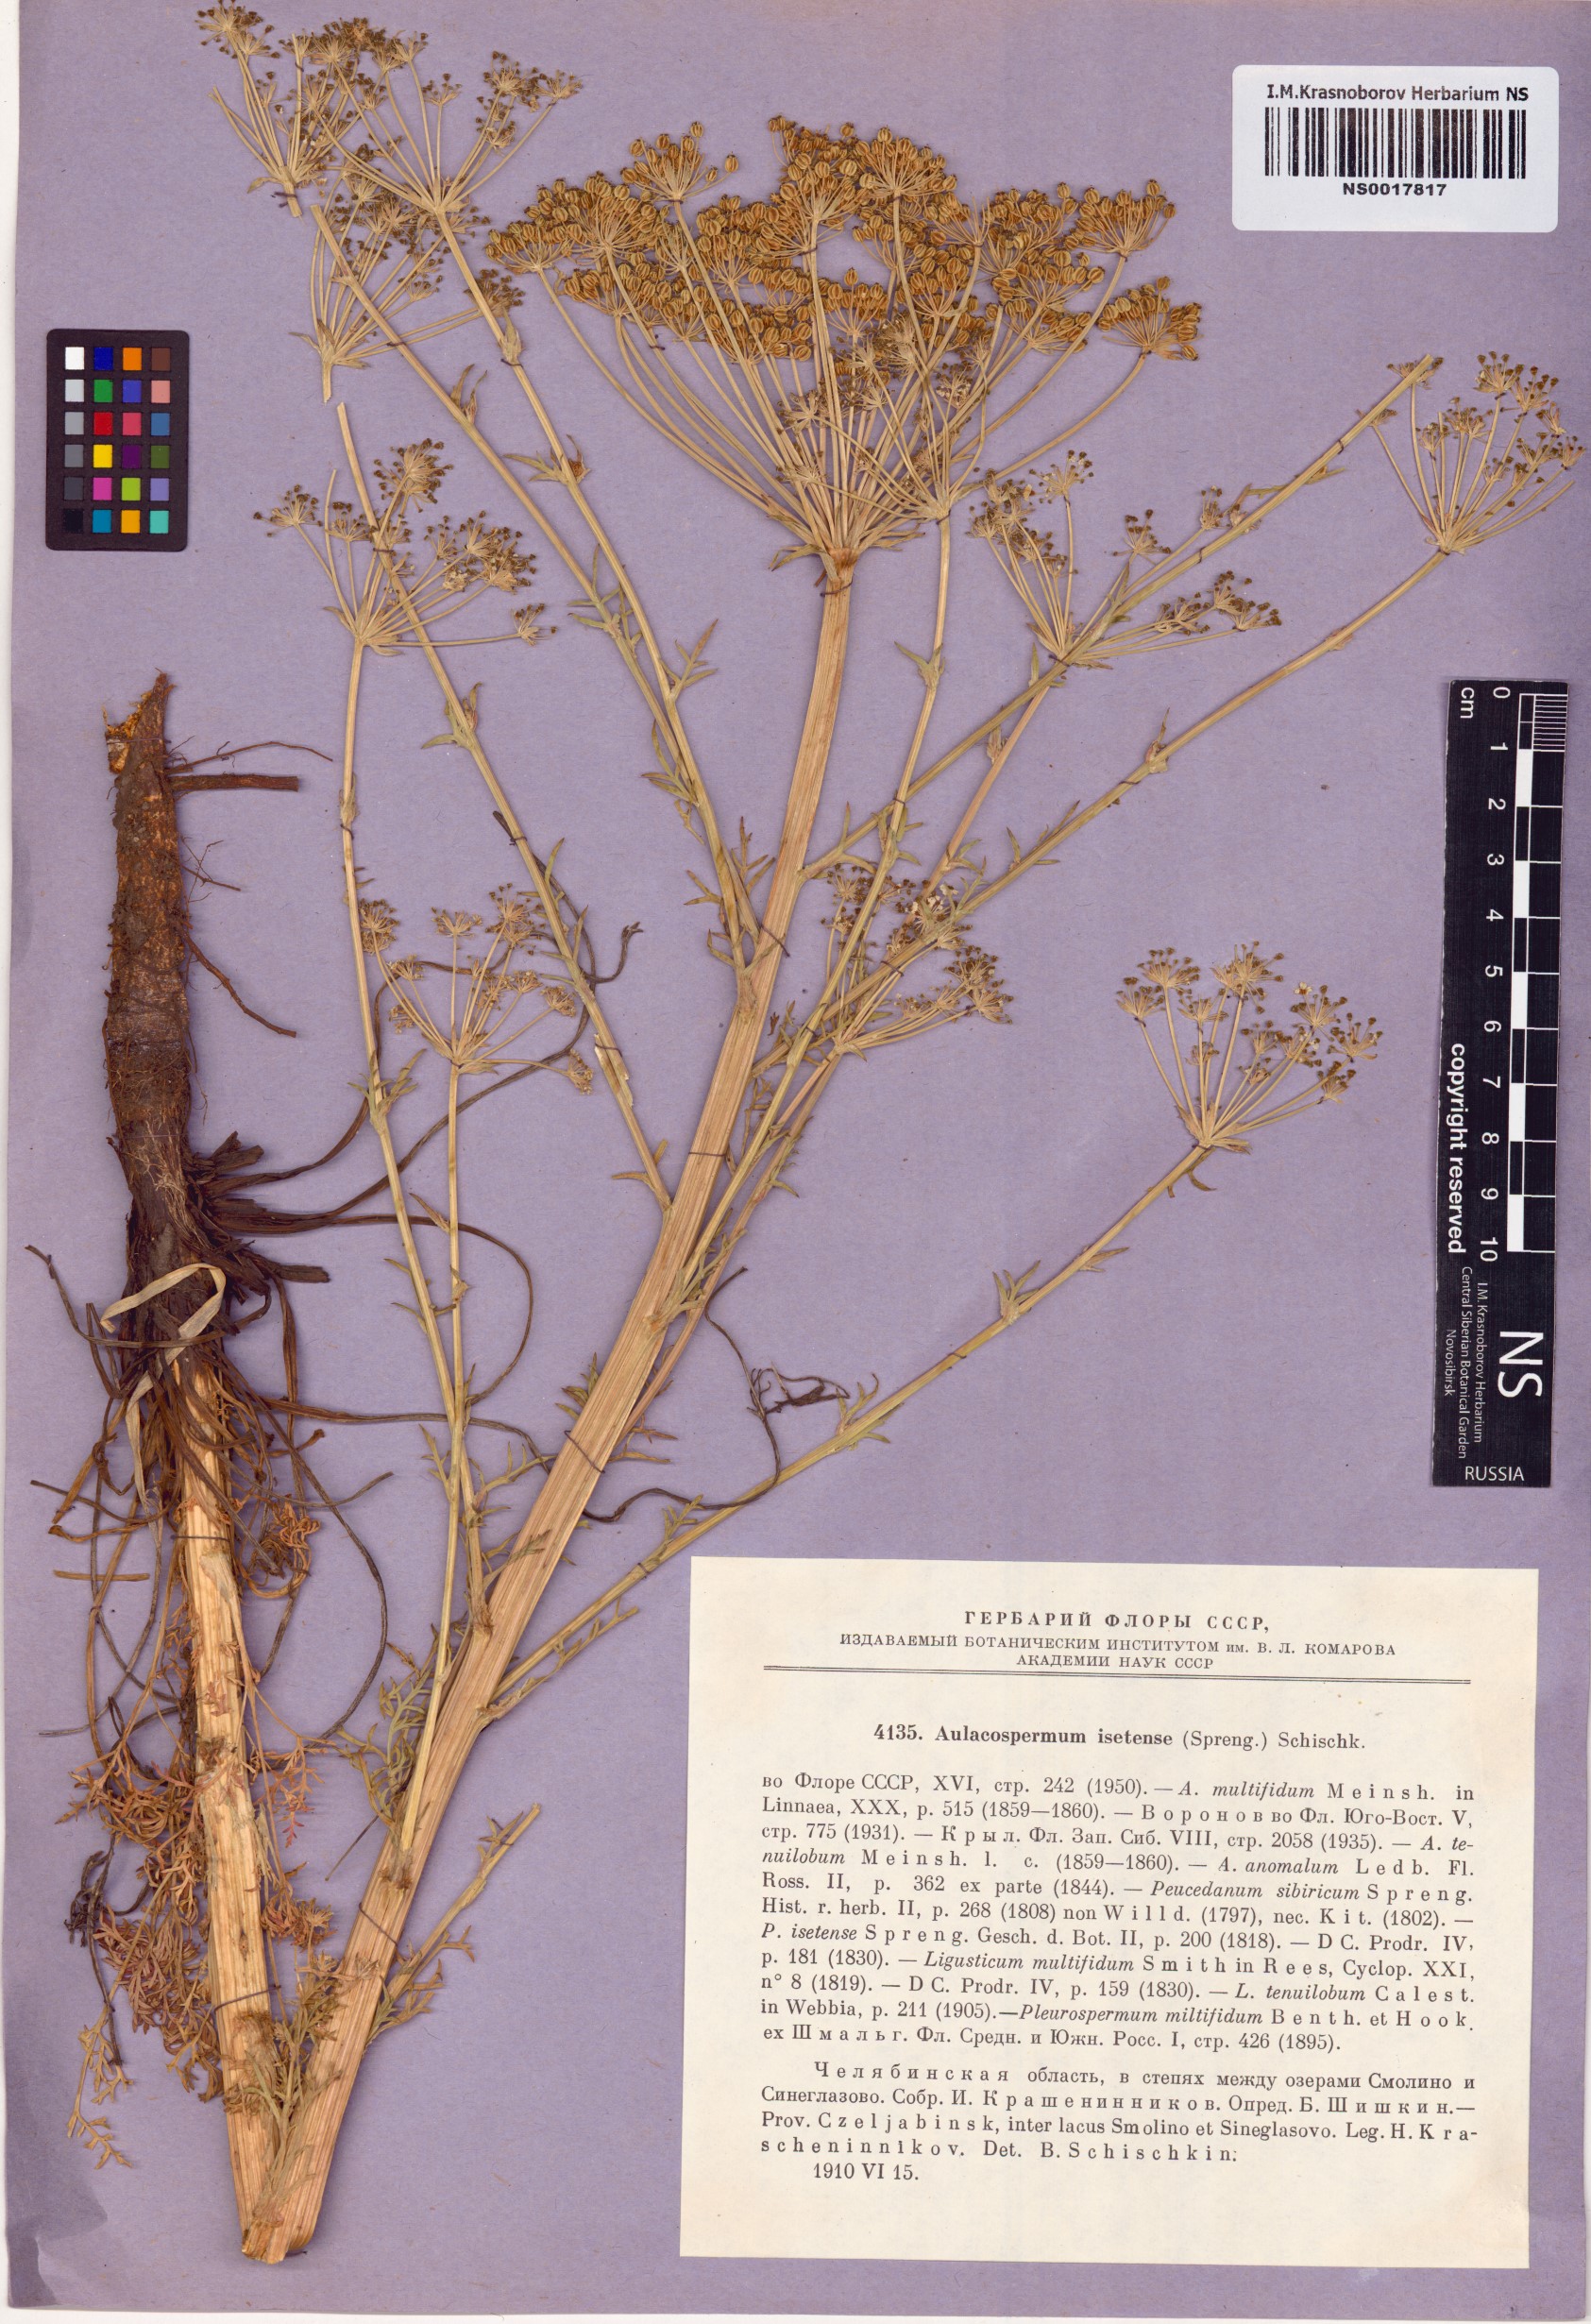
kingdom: Plantae
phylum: Tracheophyta
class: Magnoliopsida
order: Apiales
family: Apiaceae
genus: Aulacospermum
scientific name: Aulacospermum multifidum
